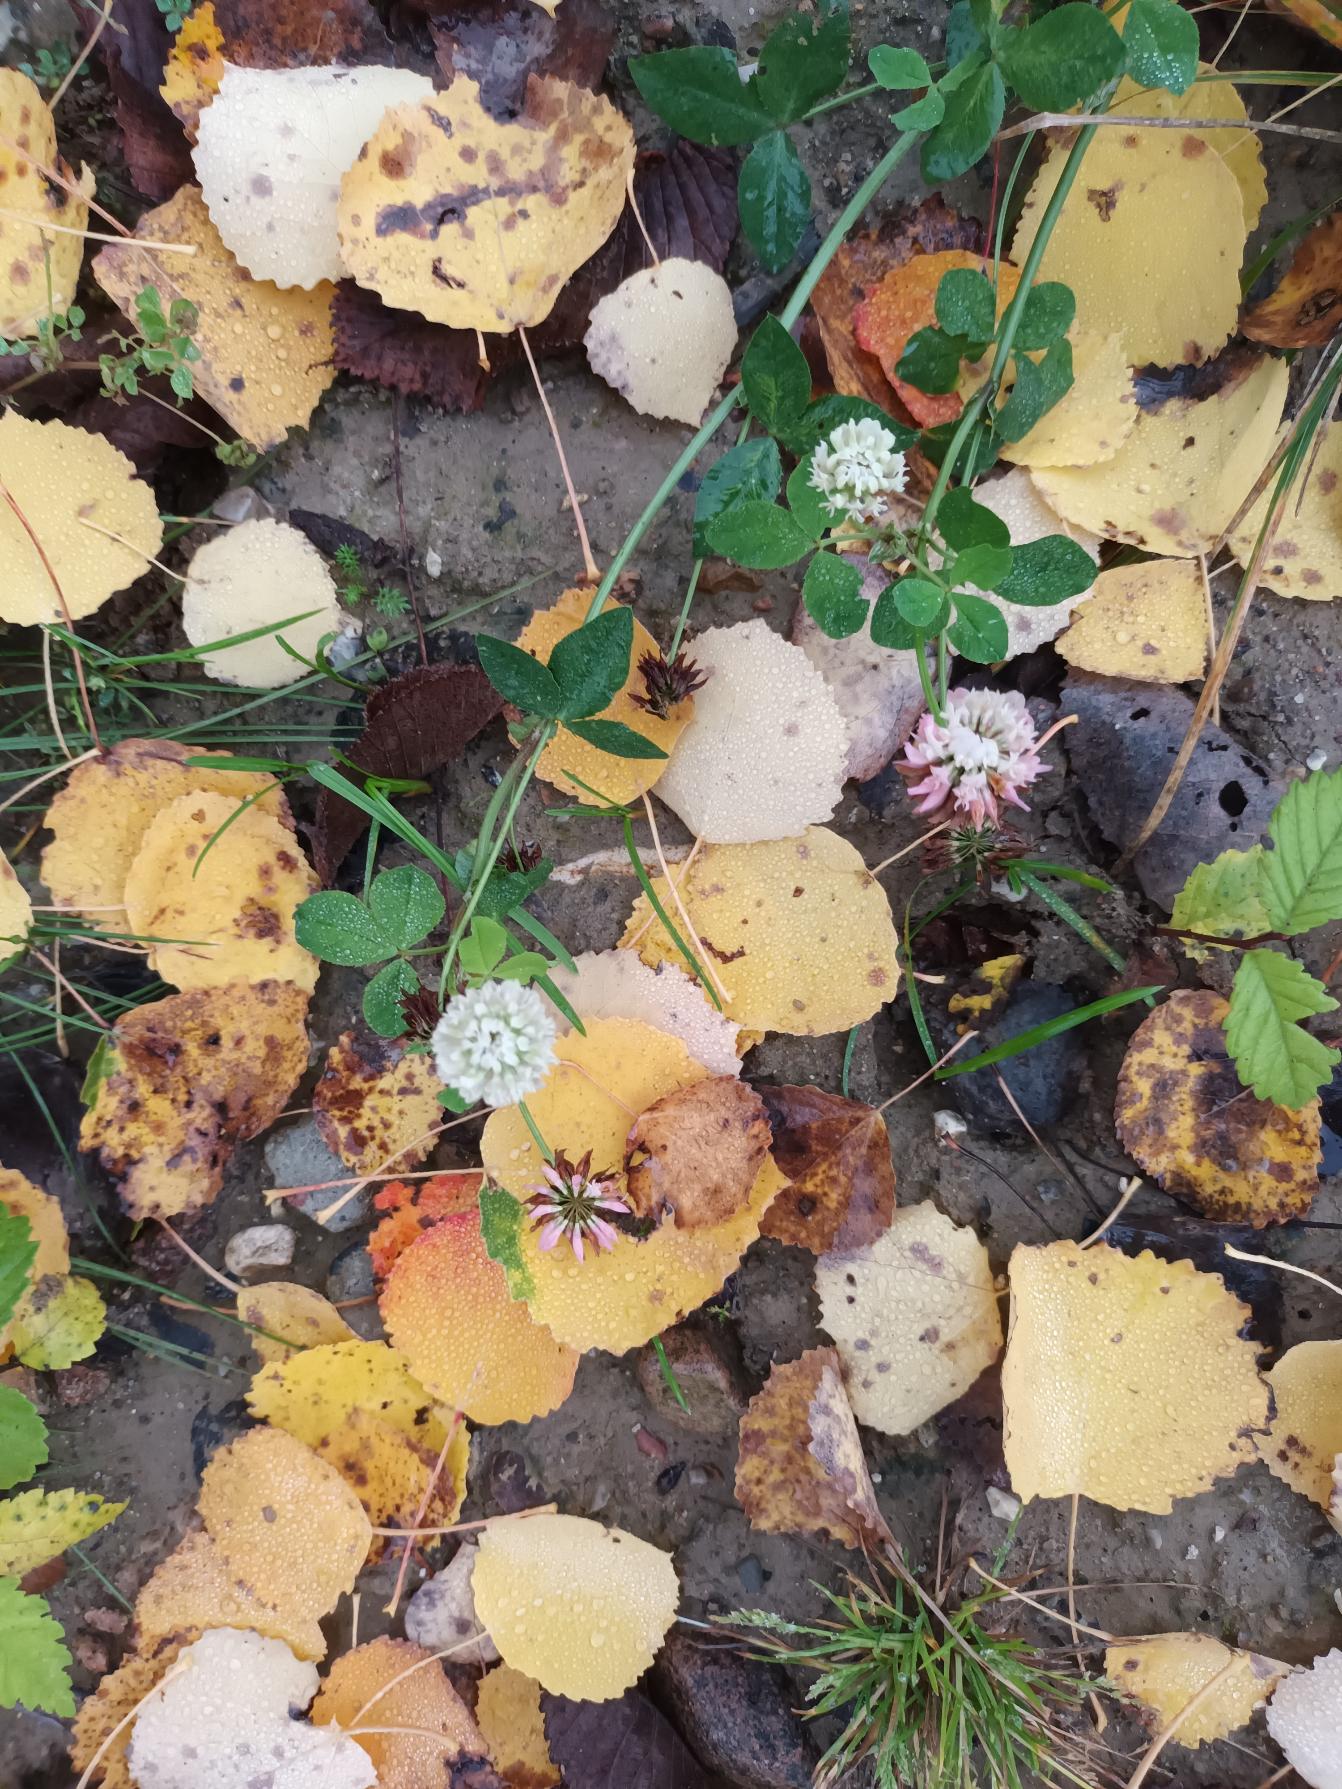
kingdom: Plantae
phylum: Tracheophyta
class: Magnoliopsida
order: Fabales
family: Fabaceae
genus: Trifolium
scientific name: Trifolium hybridum
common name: Alsike-kløver
